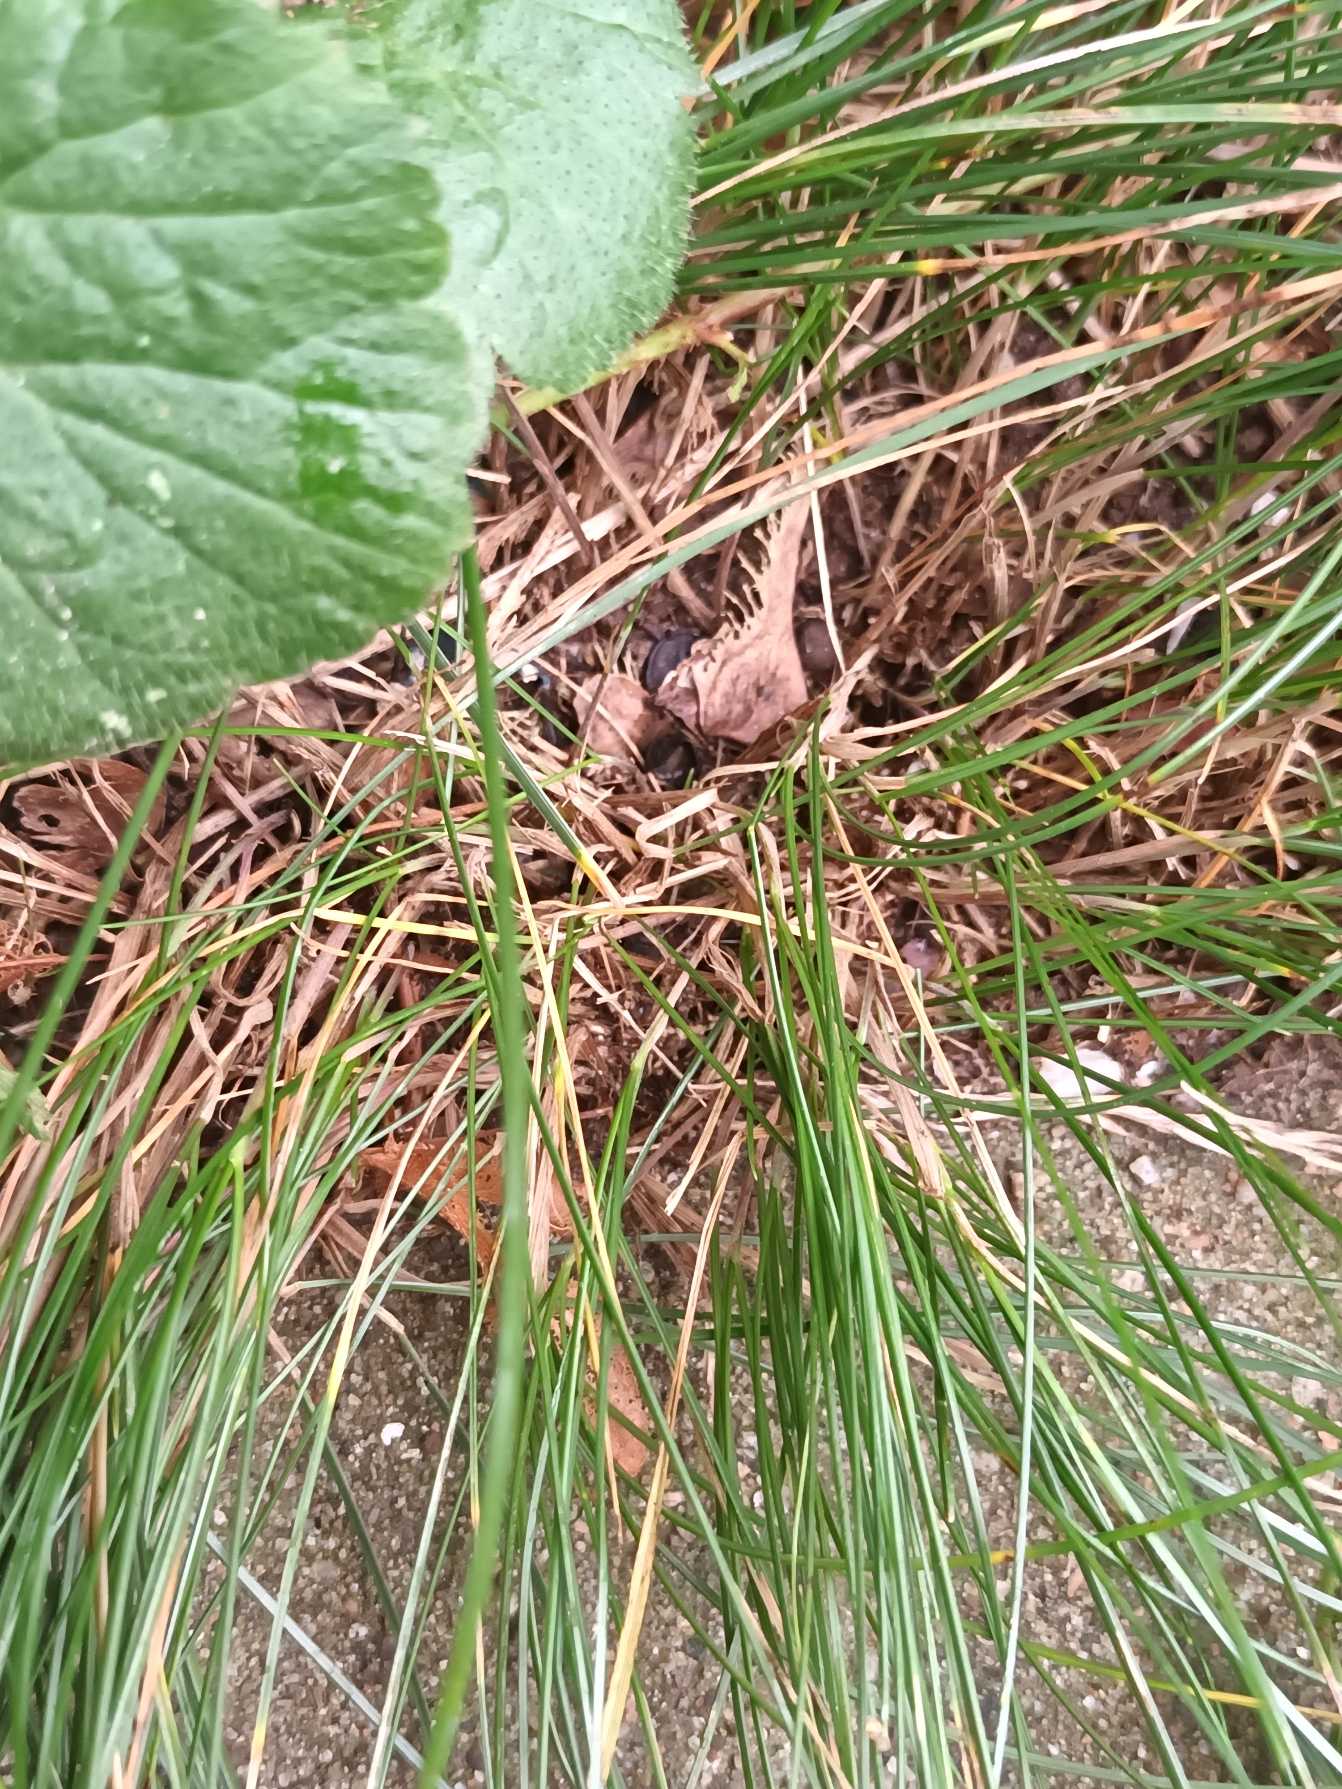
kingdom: Plantae
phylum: Tracheophyta
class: Liliopsida
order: Poales
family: Poaceae
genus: Festuca
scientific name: Festuca nigrescens
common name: Vej-svingel
